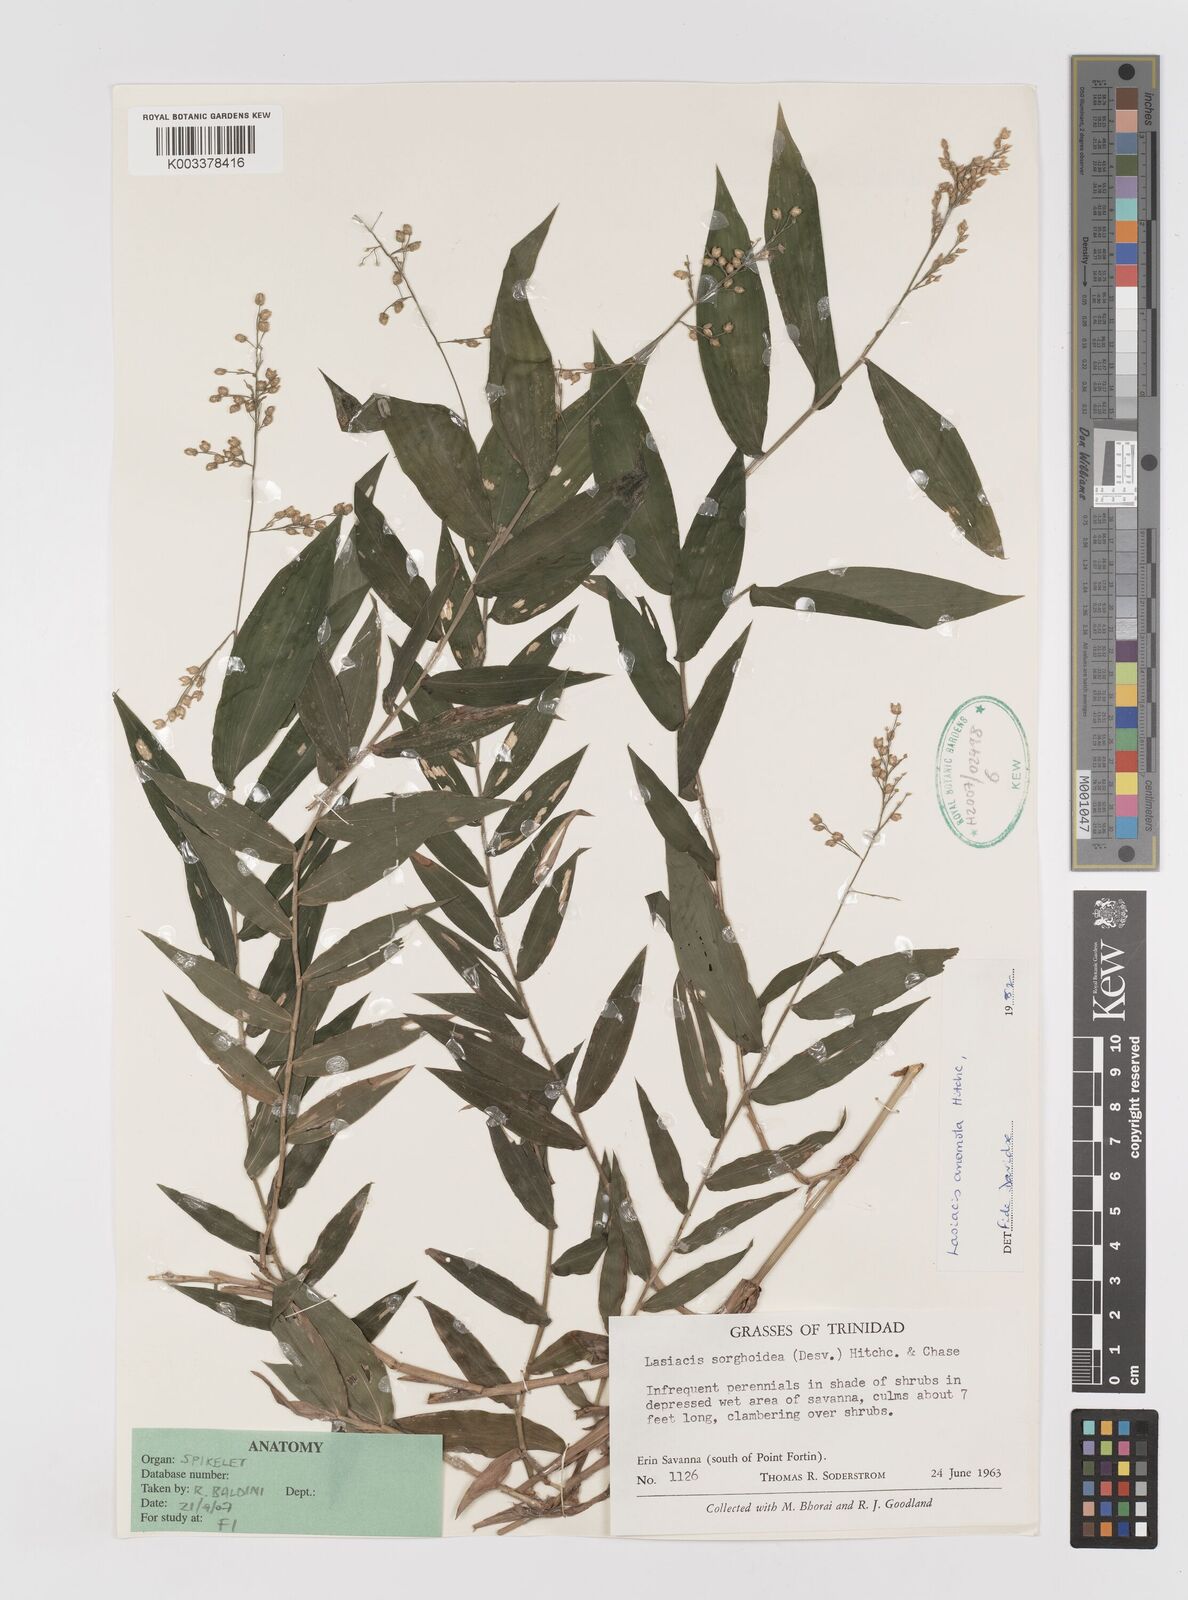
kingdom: Plantae
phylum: Tracheophyta
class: Liliopsida
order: Poales
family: Poaceae
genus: Lasiacis
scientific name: Lasiacis anomala
